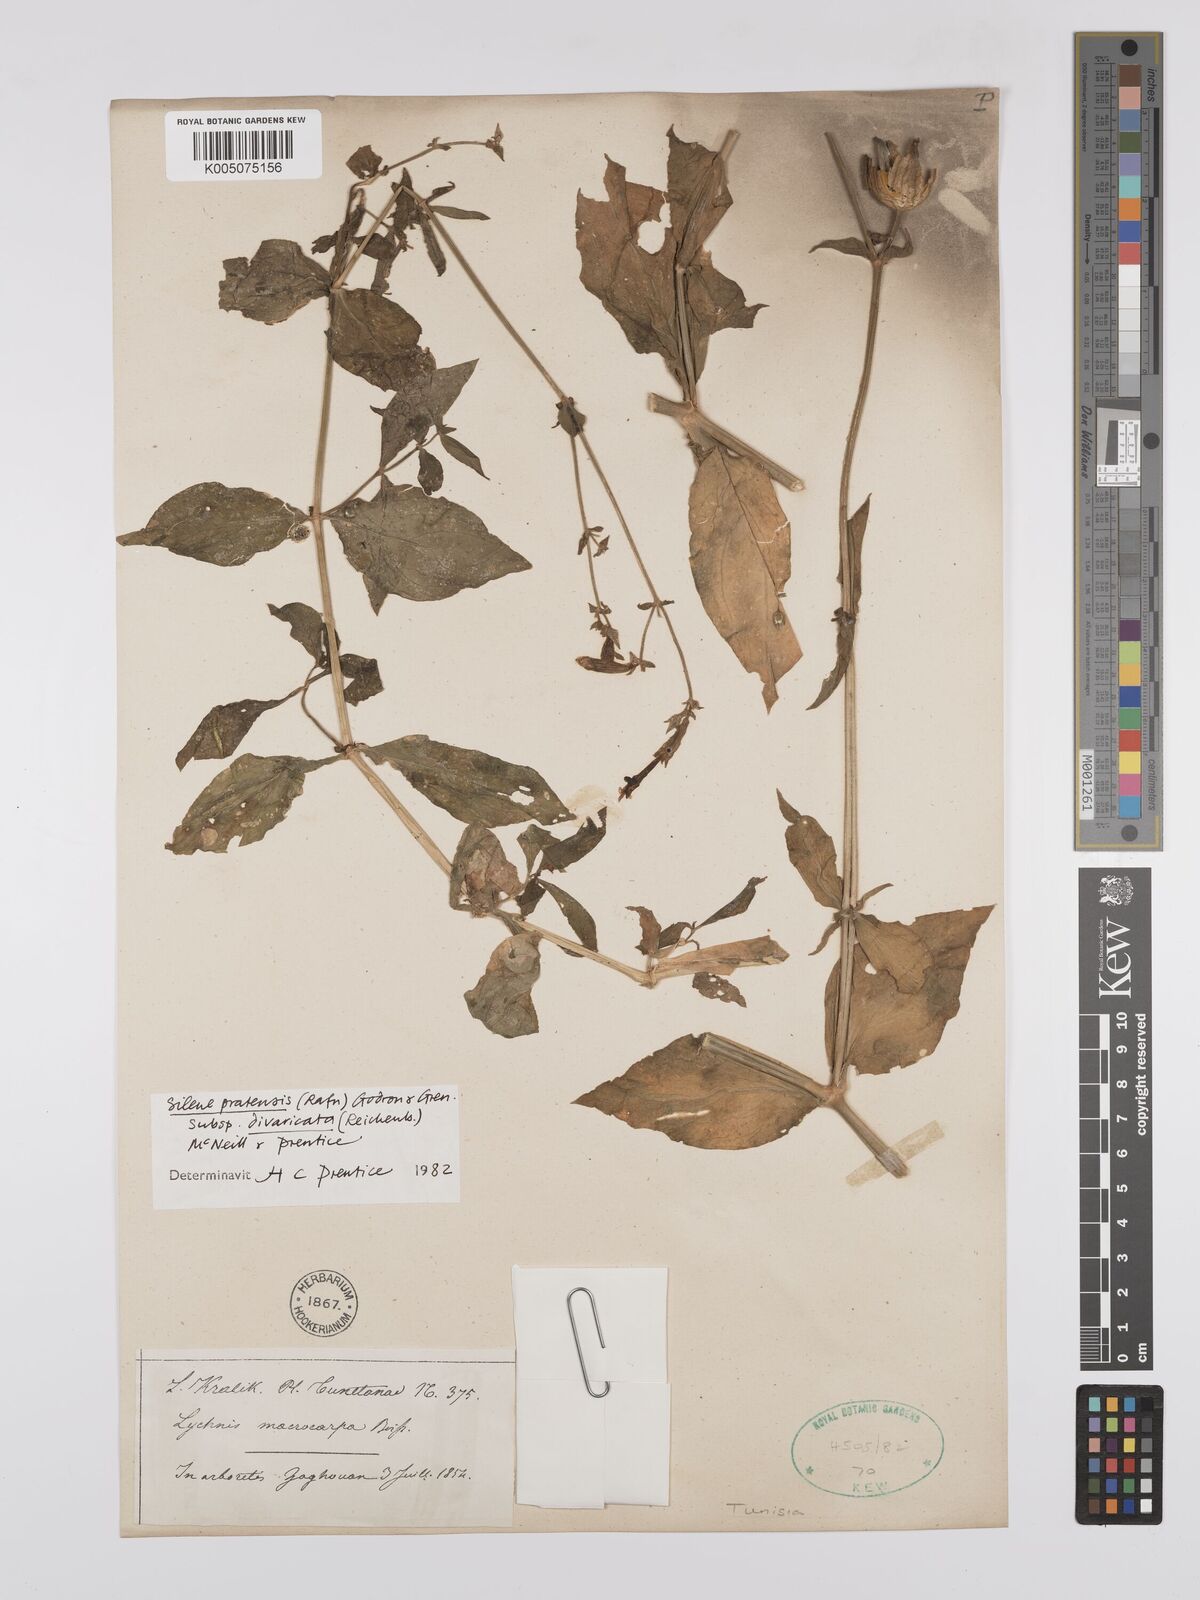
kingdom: Plantae
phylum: Tracheophyta
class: Magnoliopsida
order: Caryophyllales
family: Caryophyllaceae
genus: Silene
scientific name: Silene latifolia
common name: White campion
